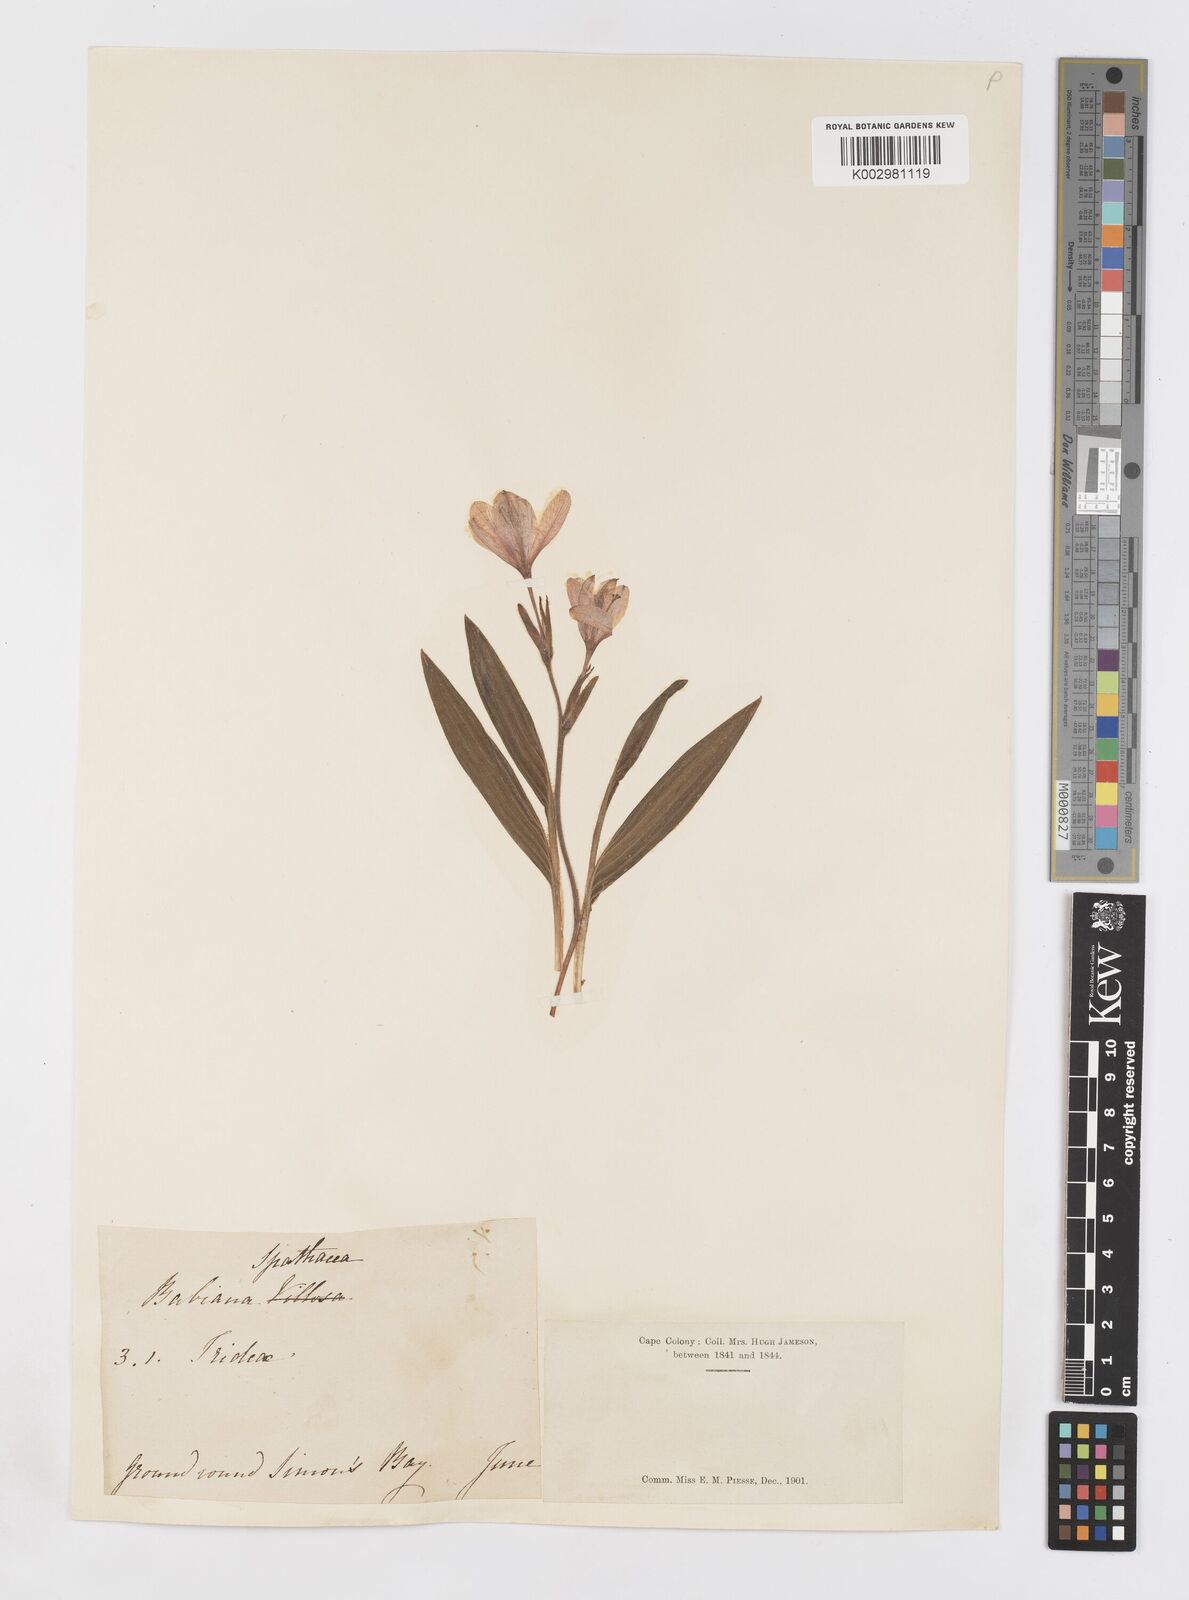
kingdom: Plantae
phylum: Tracheophyta
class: Liliopsida
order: Asparagales
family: Iridaceae
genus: Babiana
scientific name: Babiana spathacea
